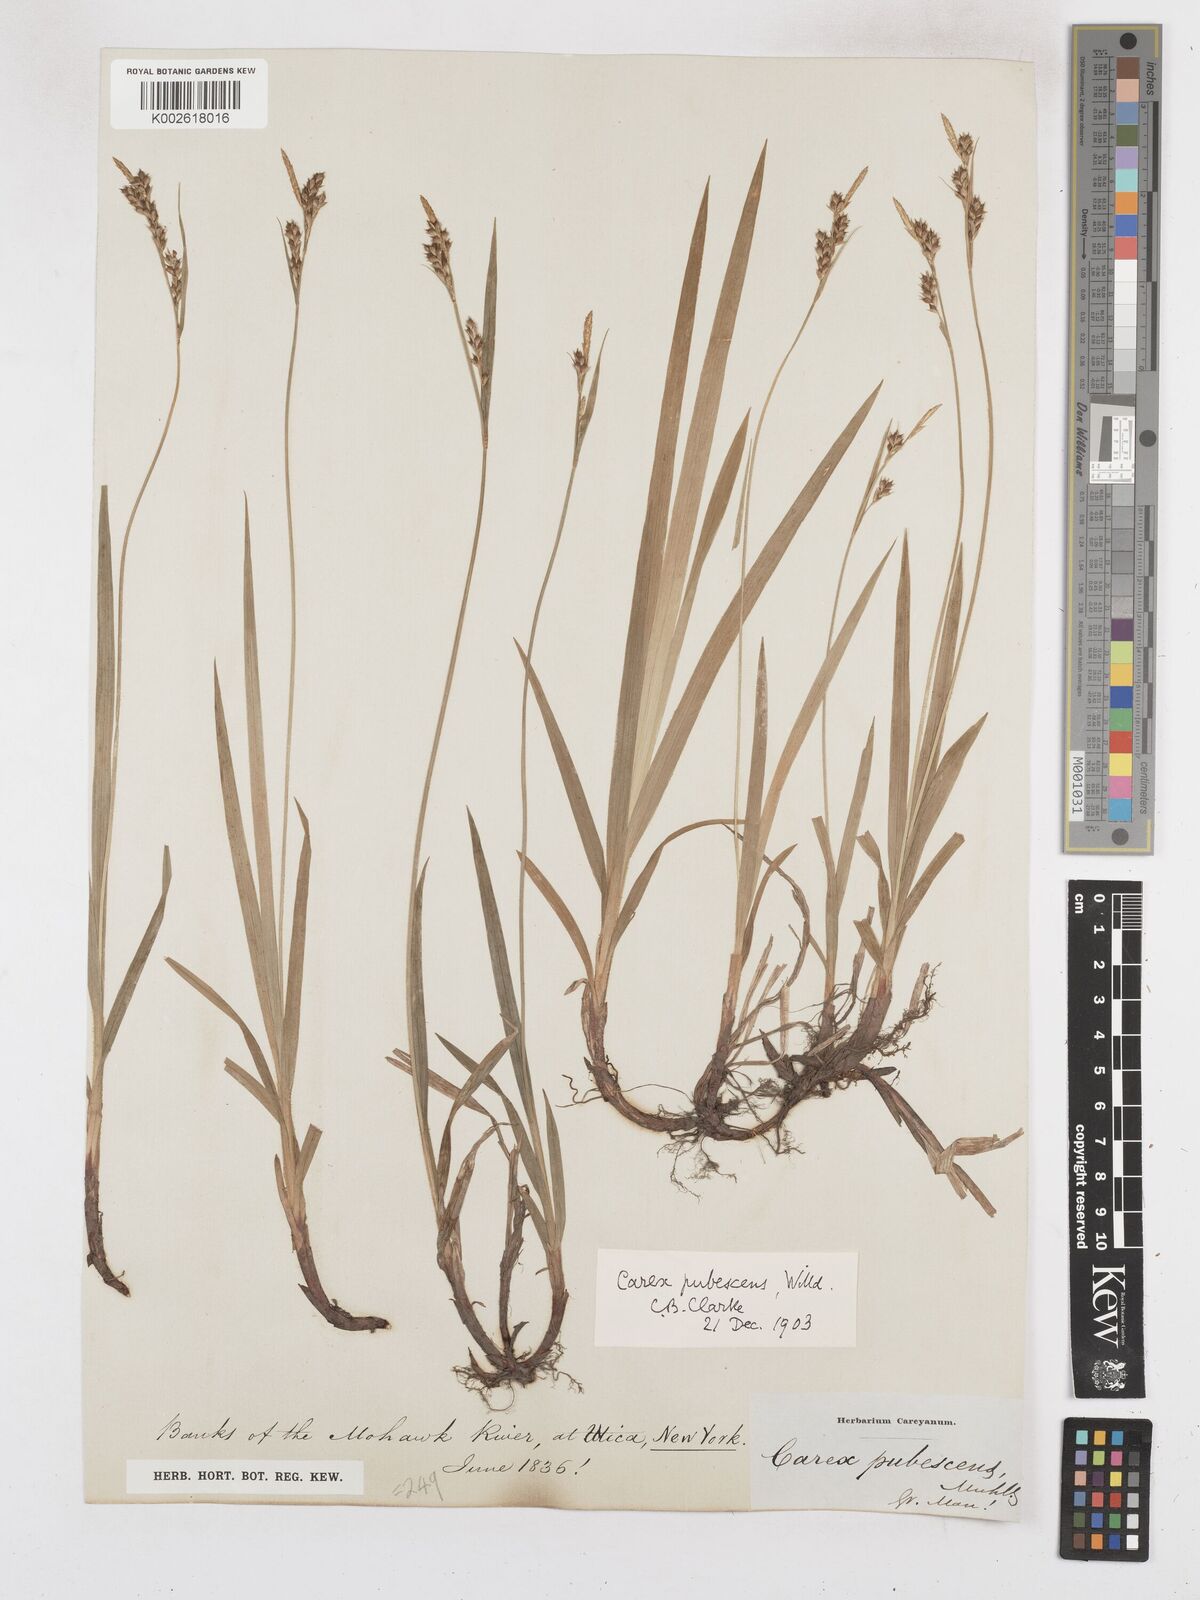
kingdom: Plantae
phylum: Tracheophyta
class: Liliopsida
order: Poales
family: Cyperaceae
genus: Carex
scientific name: Carex hirtifolia
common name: Hairy sedge
